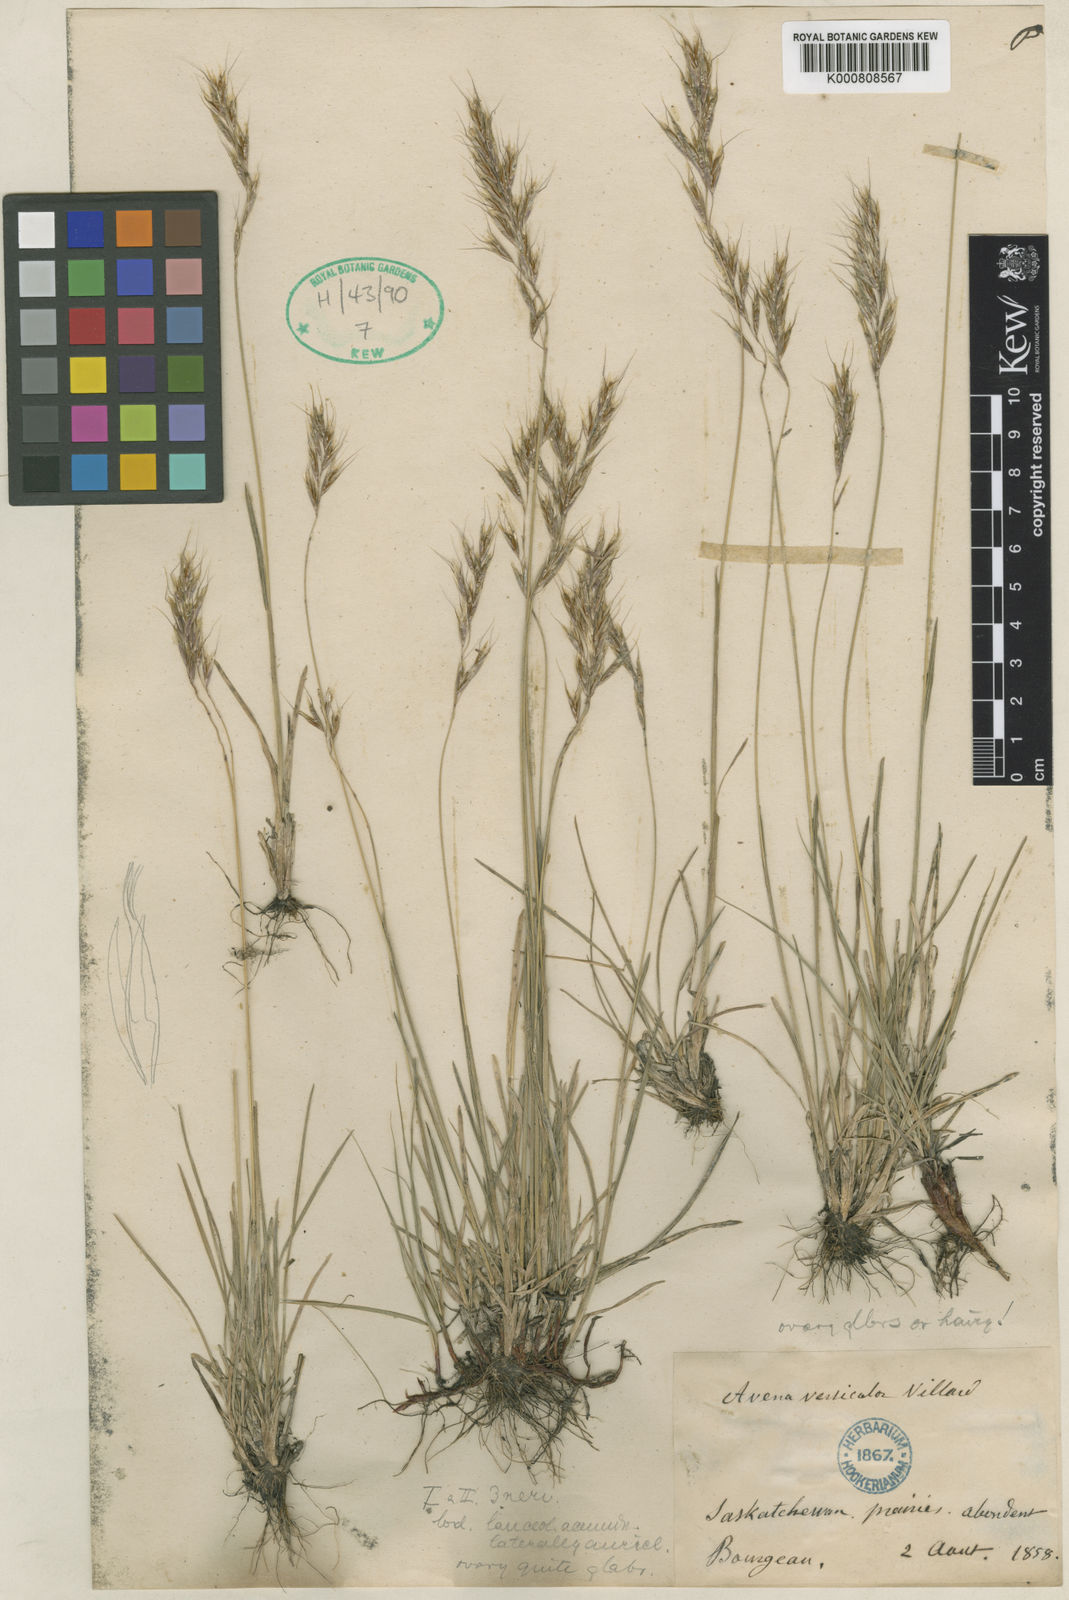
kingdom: Plantae
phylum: Tracheophyta
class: Liliopsida
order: Poales
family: Poaceae
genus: Helictochloa
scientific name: Helictochloa hookeri
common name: Hooker's alpine oatgrass
